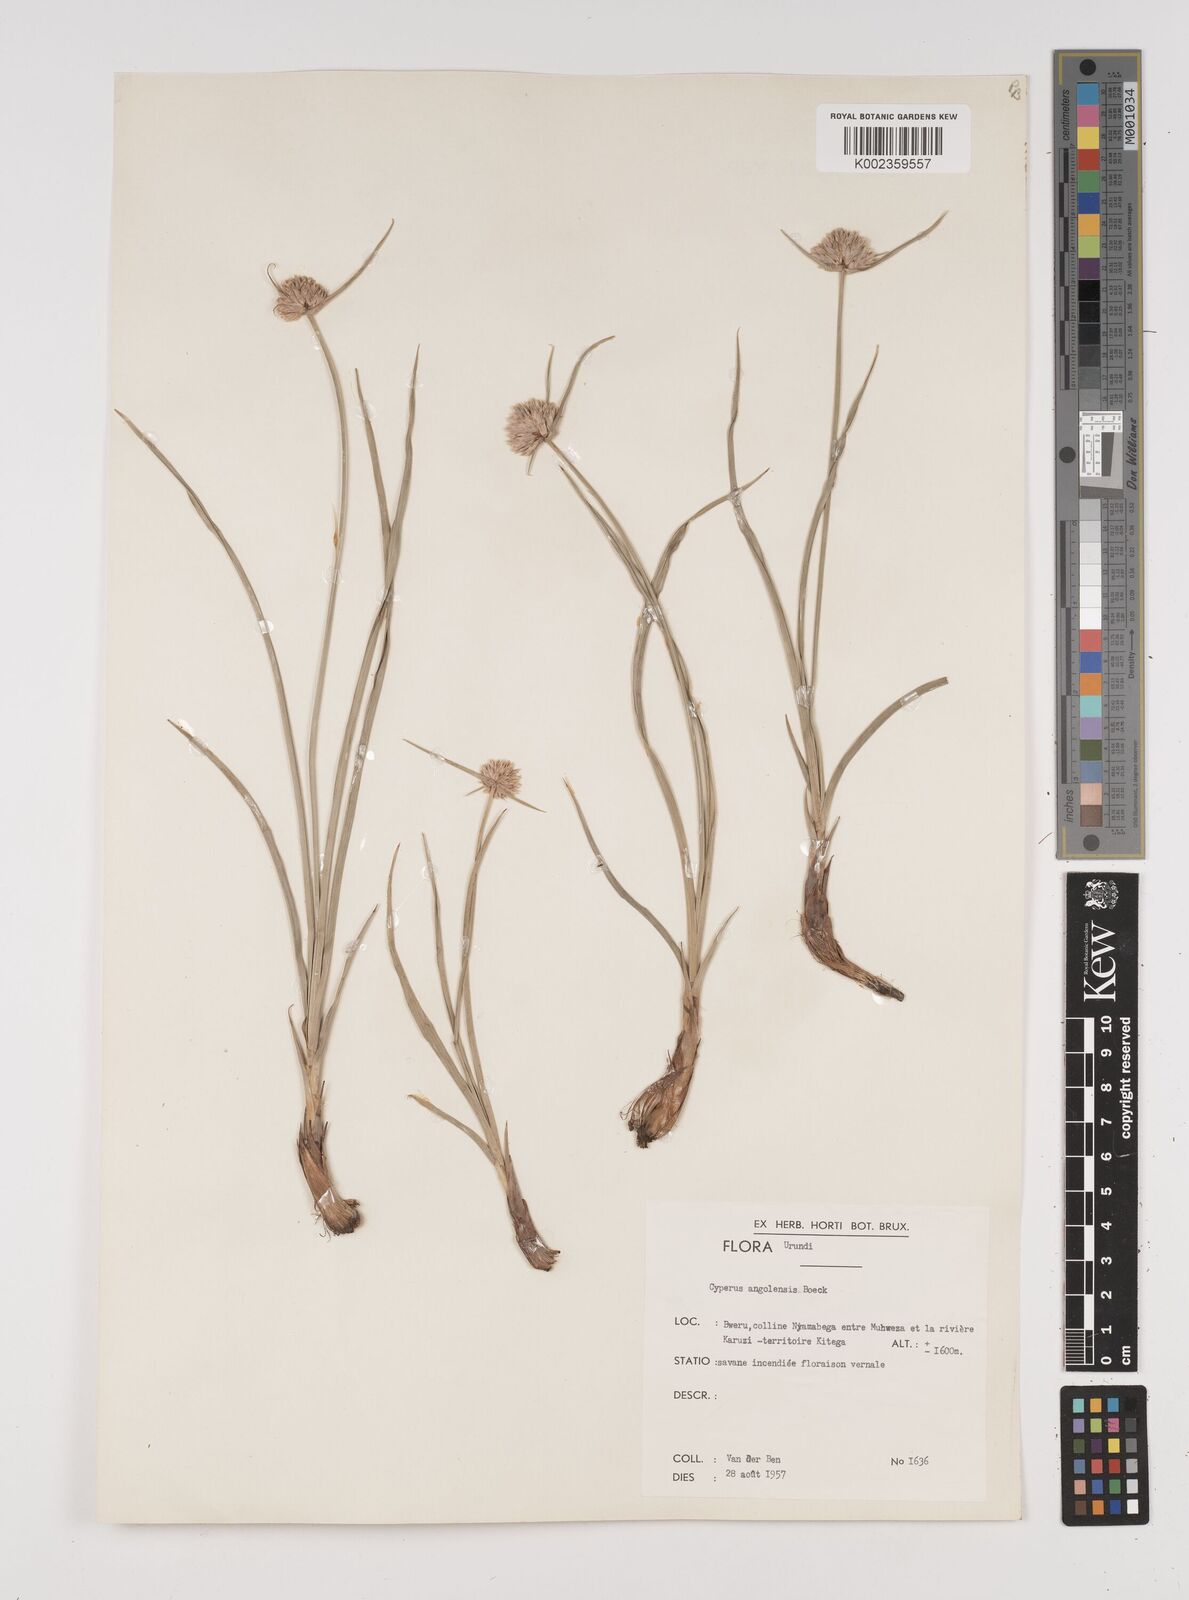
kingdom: Plantae
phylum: Tracheophyta
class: Liliopsida
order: Poales
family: Cyperaceae
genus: Cyperus
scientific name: Cyperus angolensis
